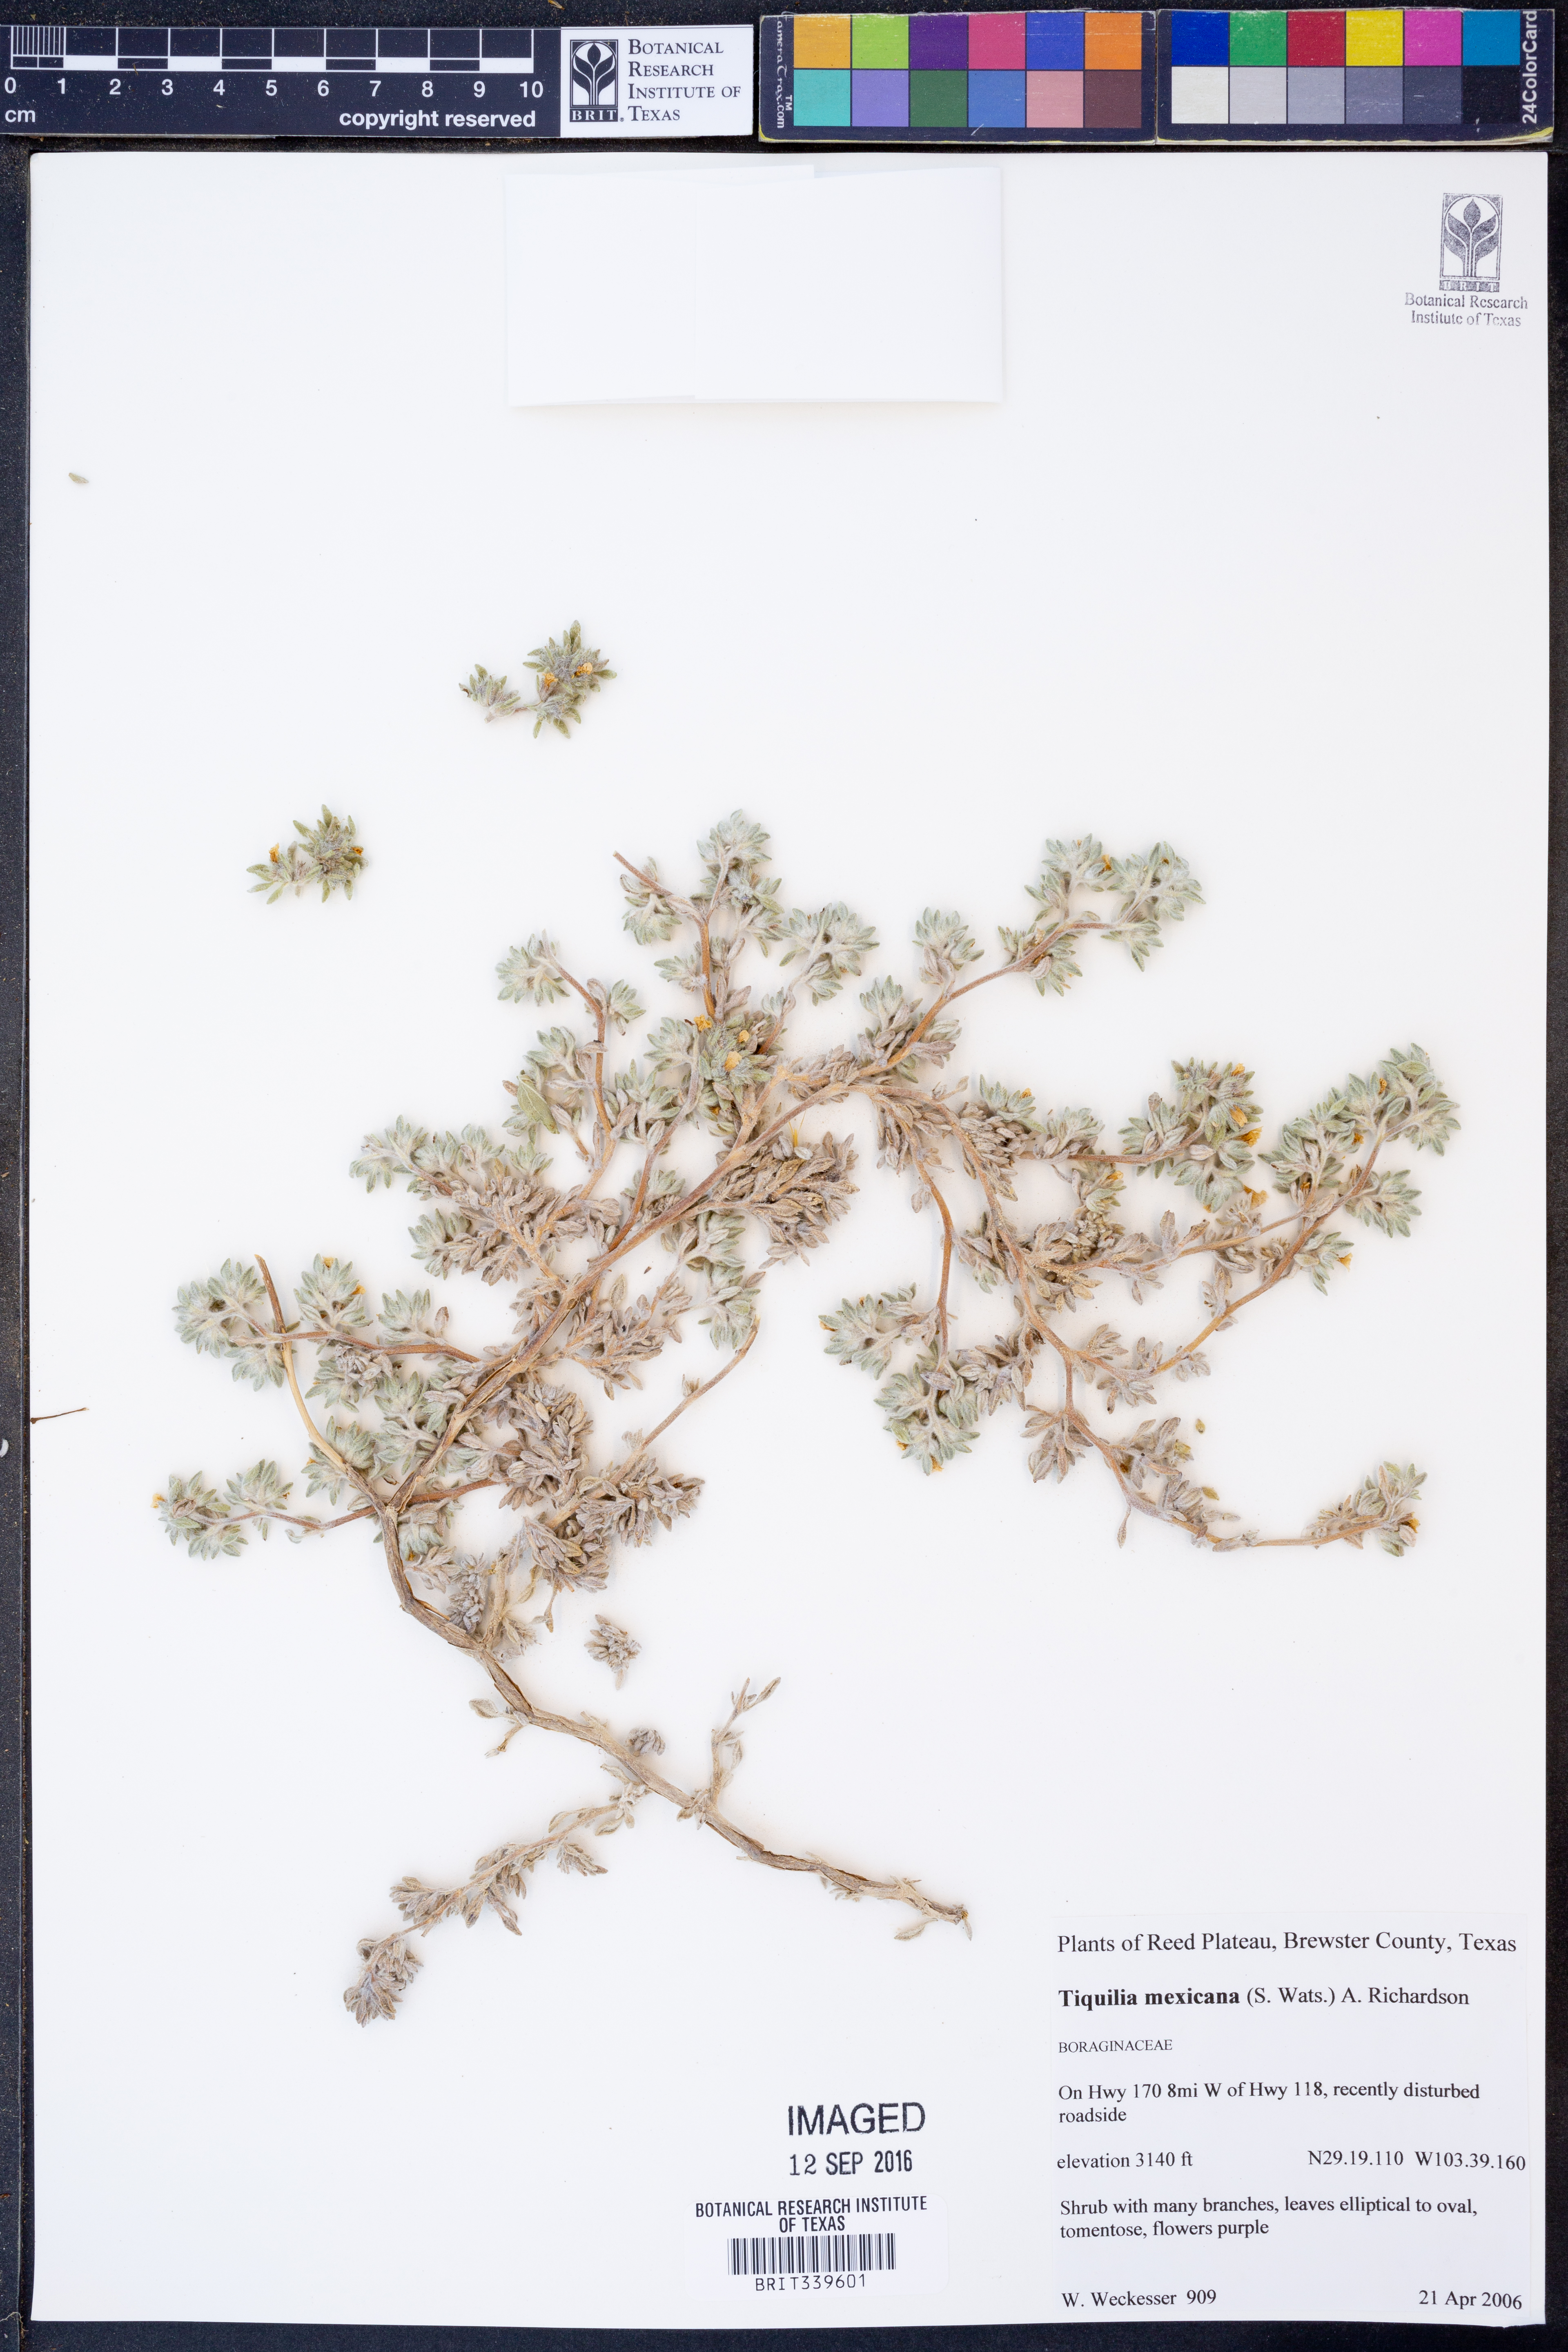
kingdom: Plantae
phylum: Tracheophyta
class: Magnoliopsida
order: Boraginales
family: Ehretiaceae
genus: Tiquilia
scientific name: Tiquilia mexicana
